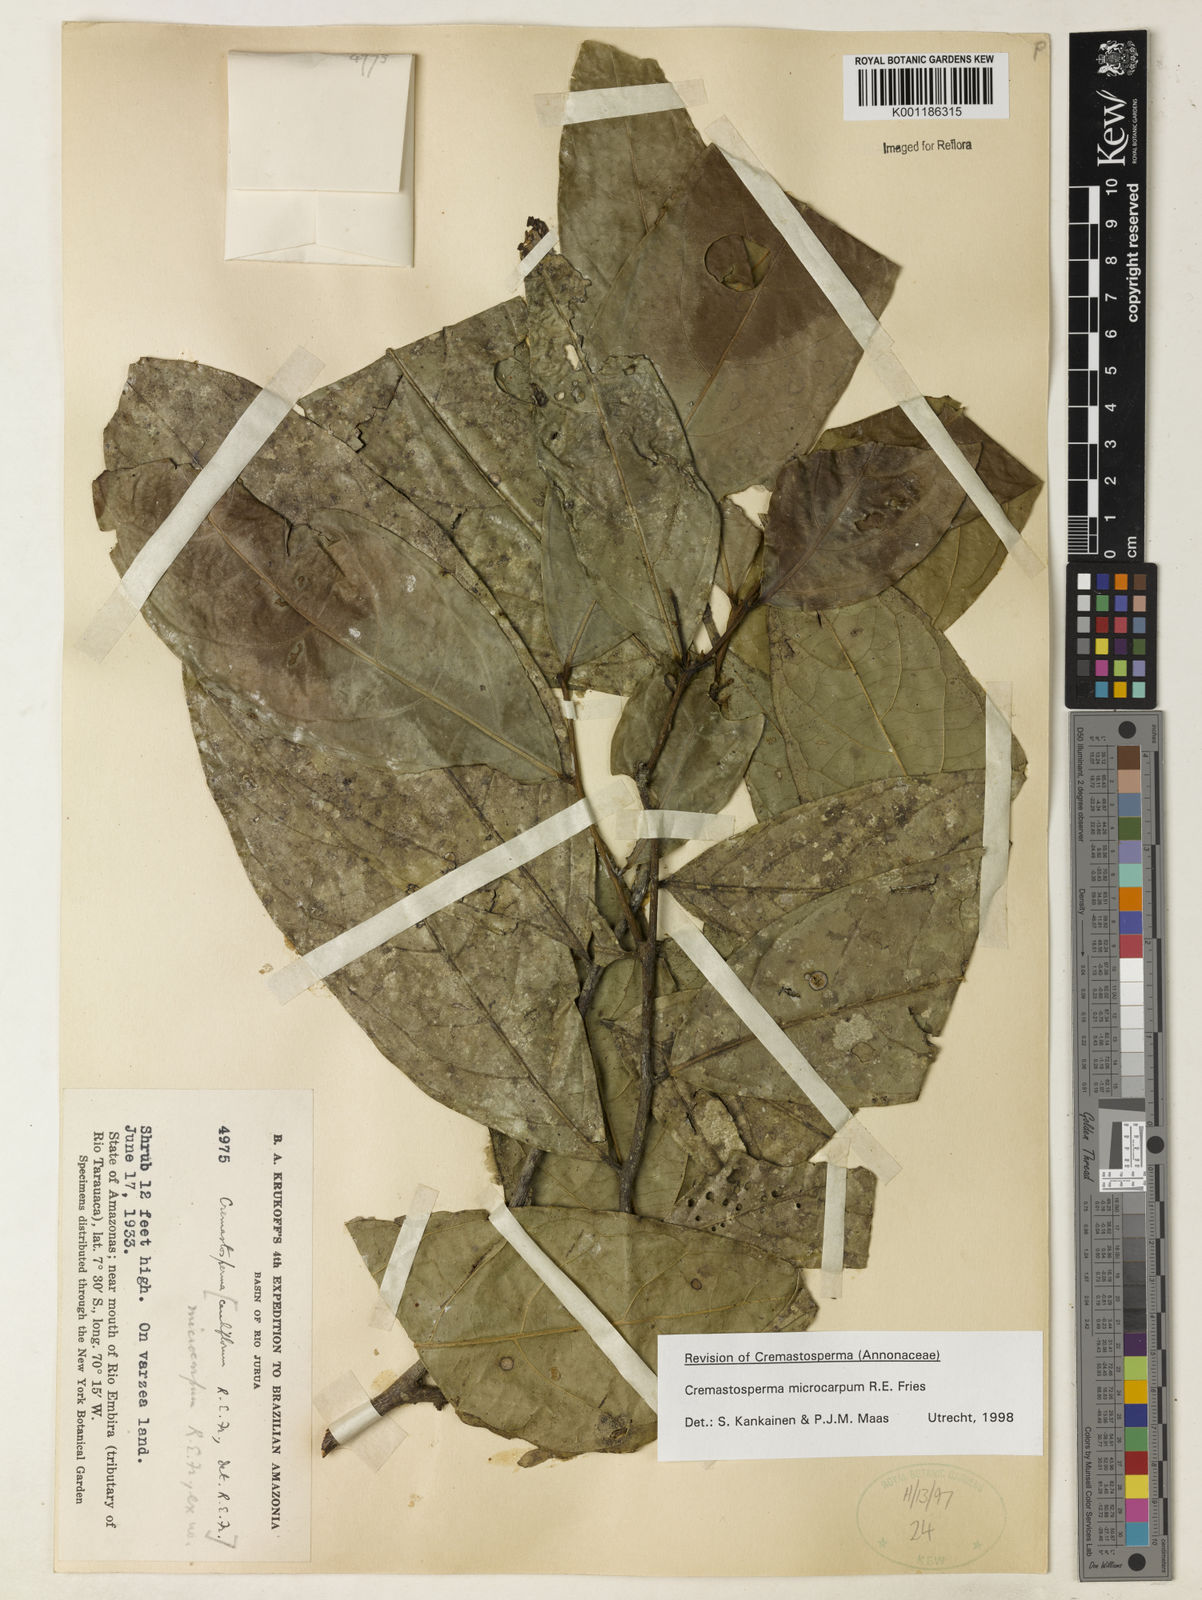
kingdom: Plantae
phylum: Tracheophyta
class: Magnoliopsida
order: Magnoliales
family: Annonaceae
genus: Cremastosperma
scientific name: Cremastosperma microcarpum
